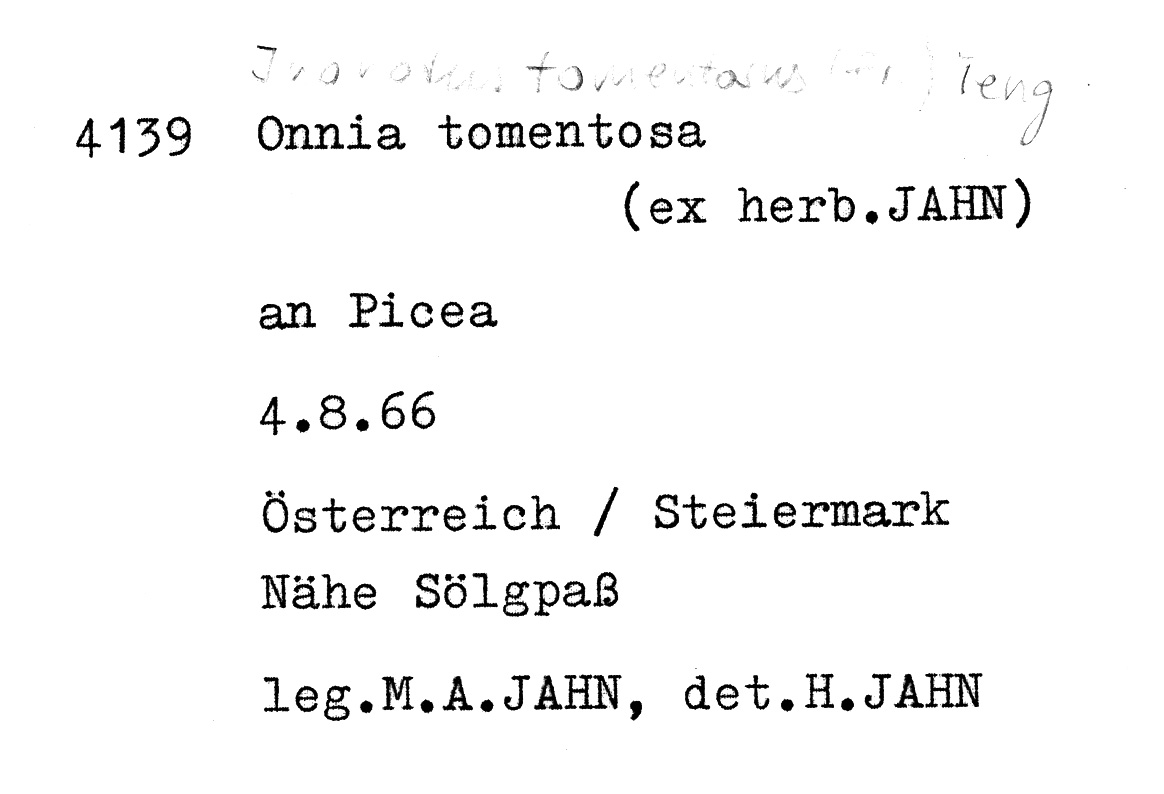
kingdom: Plantae
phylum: Tracheophyta
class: Pinopsida
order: Pinales
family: Pinaceae
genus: Picea
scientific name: Picea
